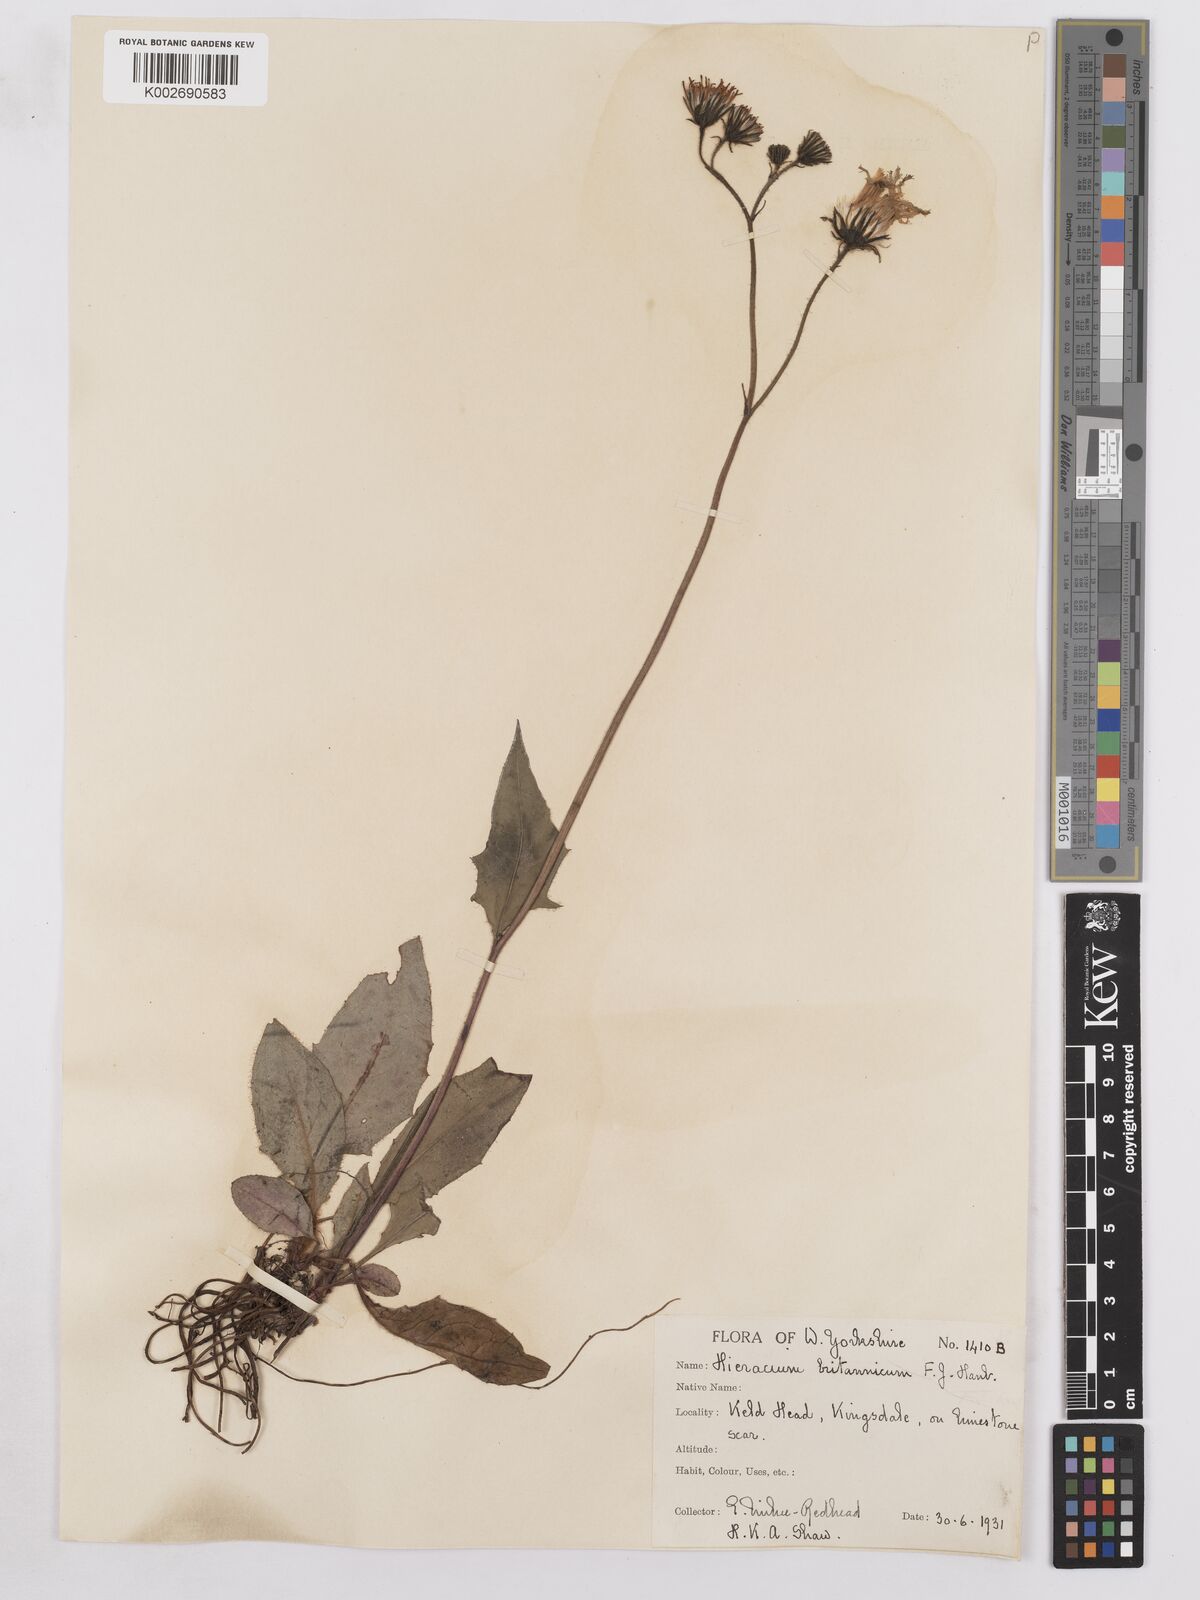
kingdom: Plantae
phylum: Tracheophyta
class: Magnoliopsida
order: Asterales
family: Asteraceae
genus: Hieracium
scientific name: Hieracium britannicum
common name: British hawkweed
